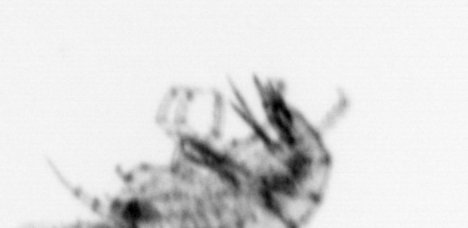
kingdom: Animalia
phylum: Arthropoda
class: Maxillopoda
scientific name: Maxillopoda
